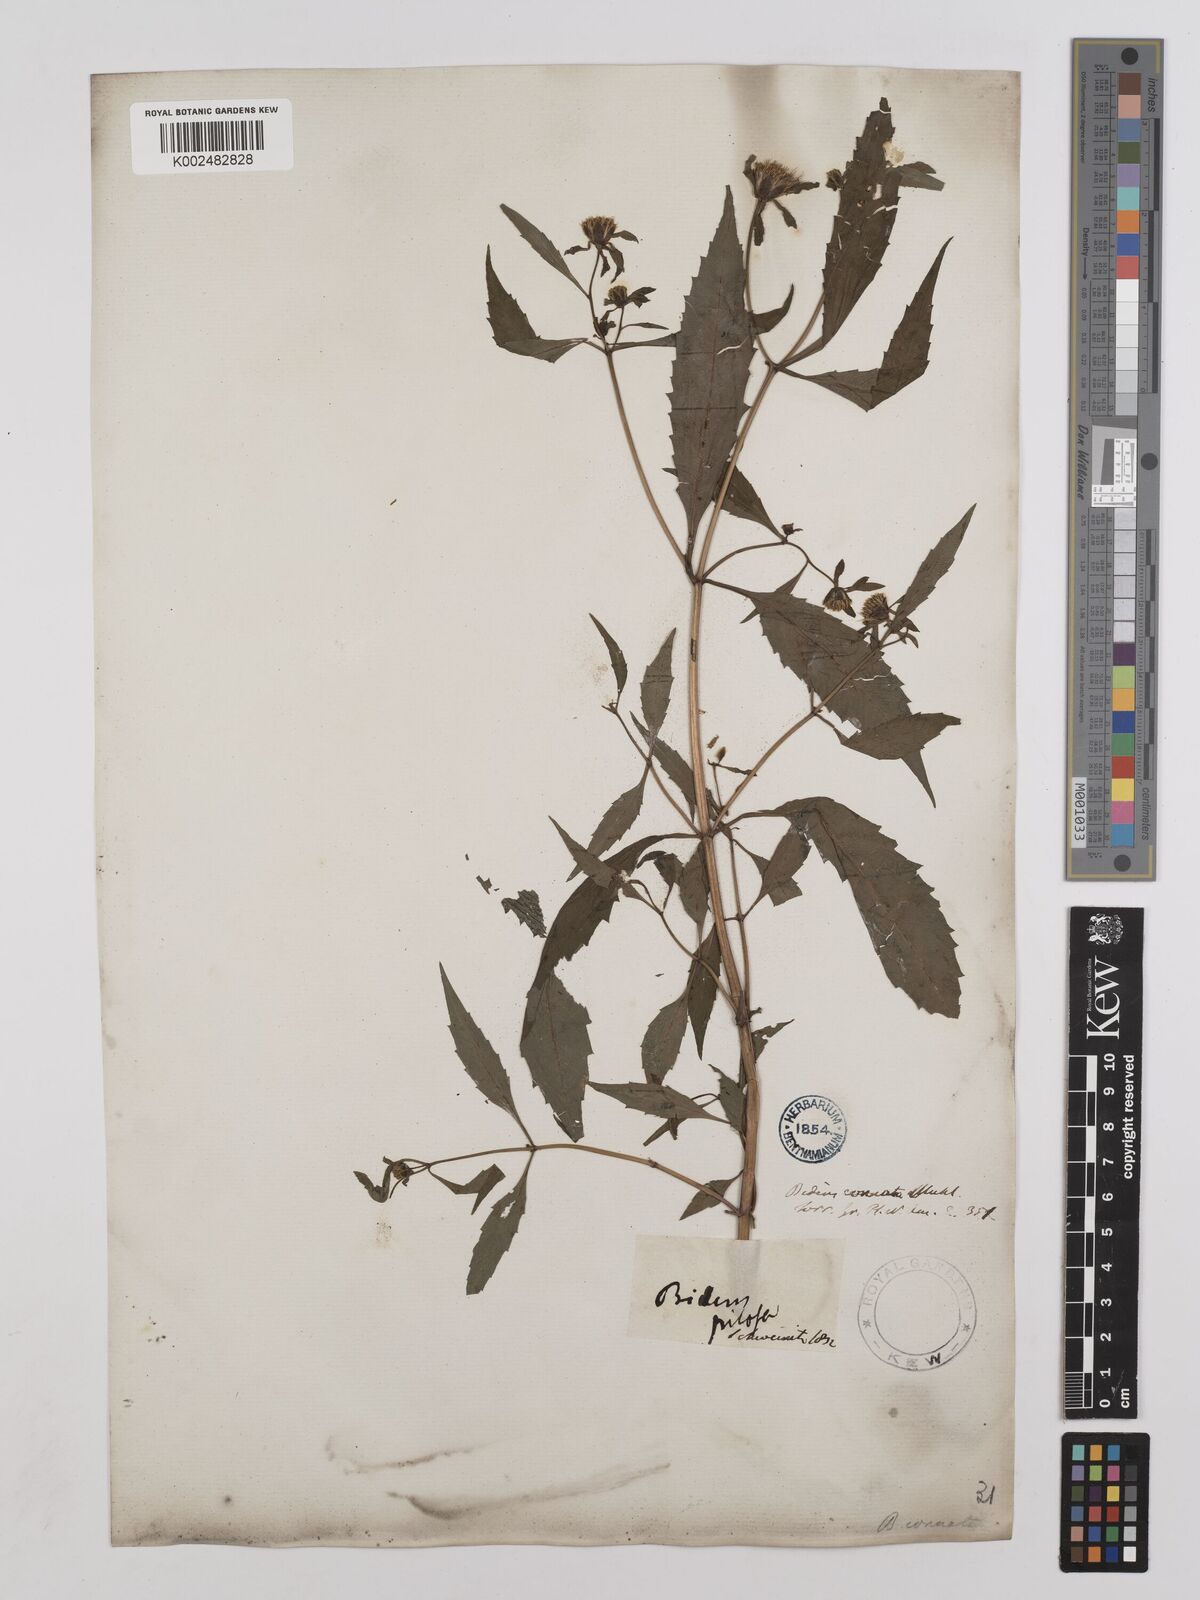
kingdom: Plantae
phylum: Tracheophyta
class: Magnoliopsida
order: Asterales
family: Asteraceae
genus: Bidens
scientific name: Bidens connata
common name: London bur-marigold
